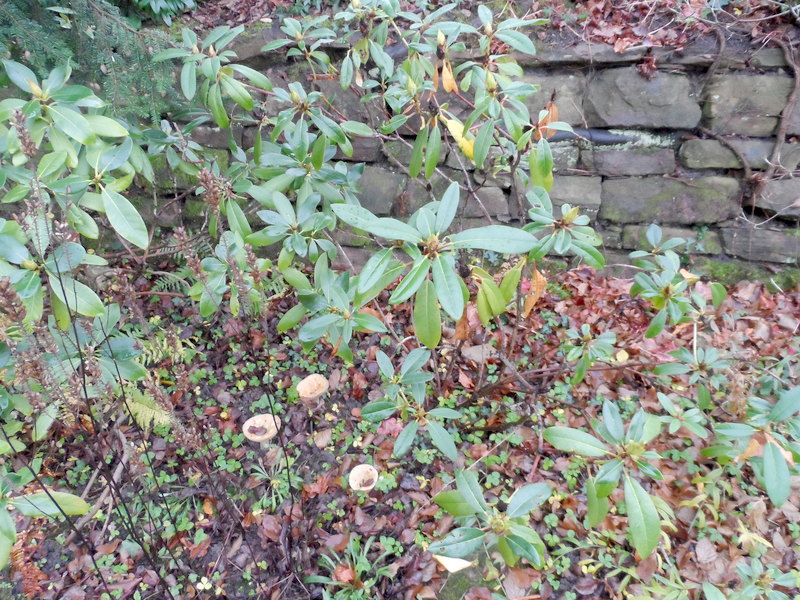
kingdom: Fungi
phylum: Basidiomycota
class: Agaricomycetes
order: Russulales
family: Russulaceae
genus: Lactarius
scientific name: Lactarius deterrimus
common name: False saffron milkcap
